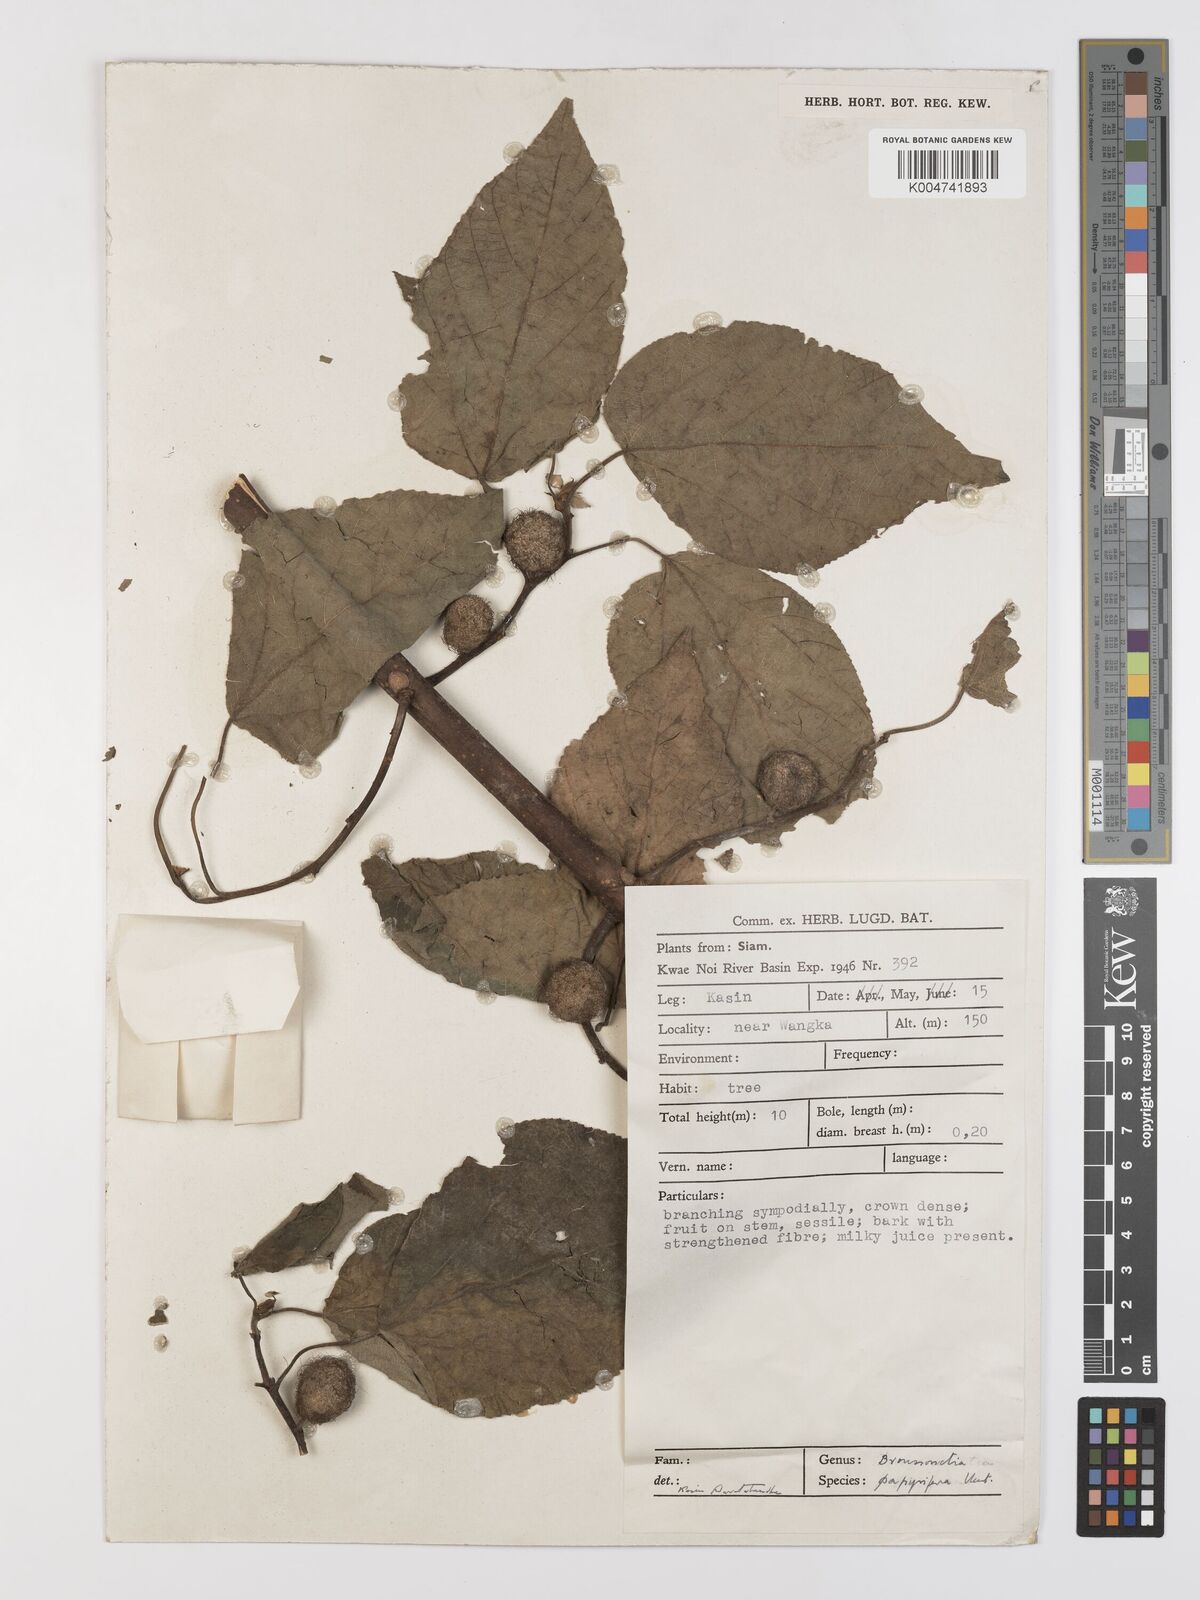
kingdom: Plantae
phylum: Tracheophyta
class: Magnoliopsida
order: Rosales
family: Moraceae
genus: Broussonetia
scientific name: Broussonetia papyrifera
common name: Paper mulberry
